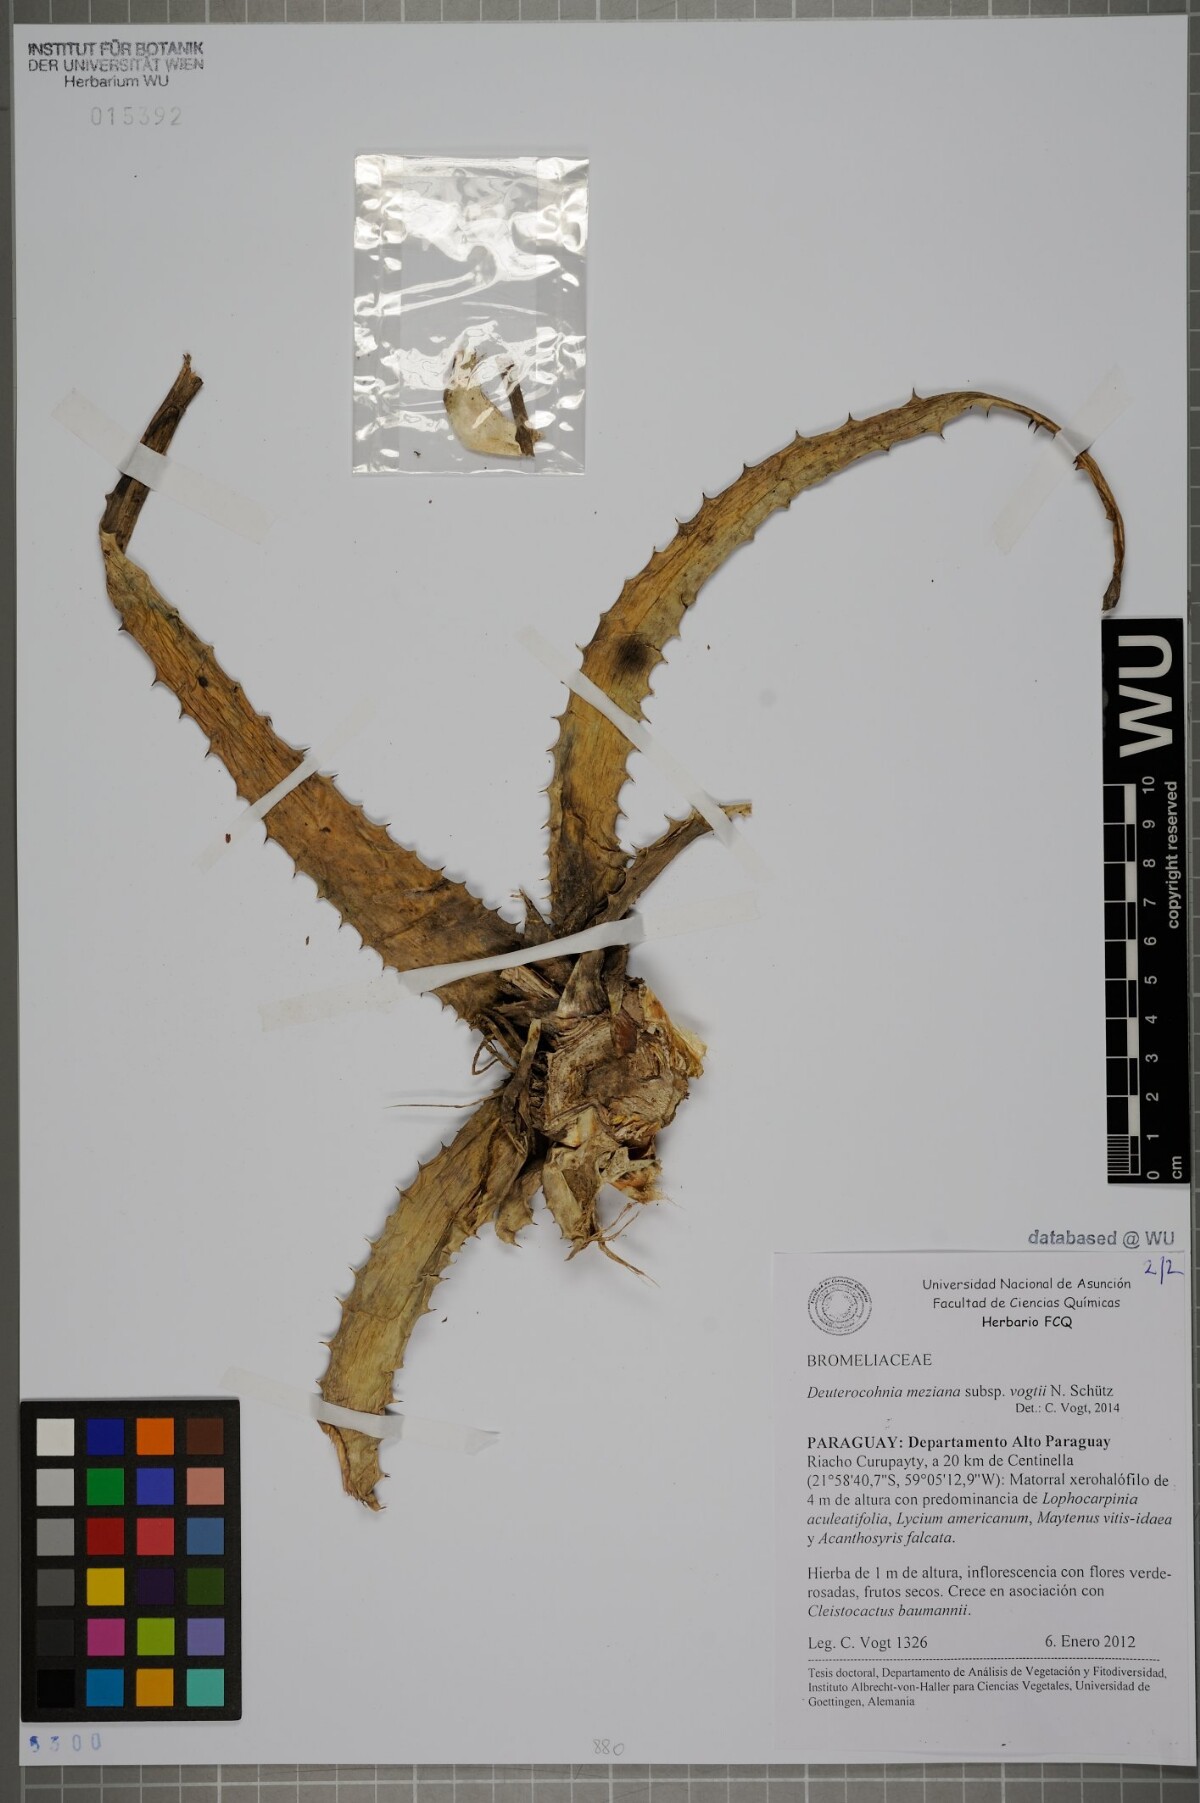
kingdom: Plantae
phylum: Tracheophyta
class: Liliopsida
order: Poales
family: Bromeliaceae
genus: Deuterocohnia
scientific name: Deuterocohnia meziana
